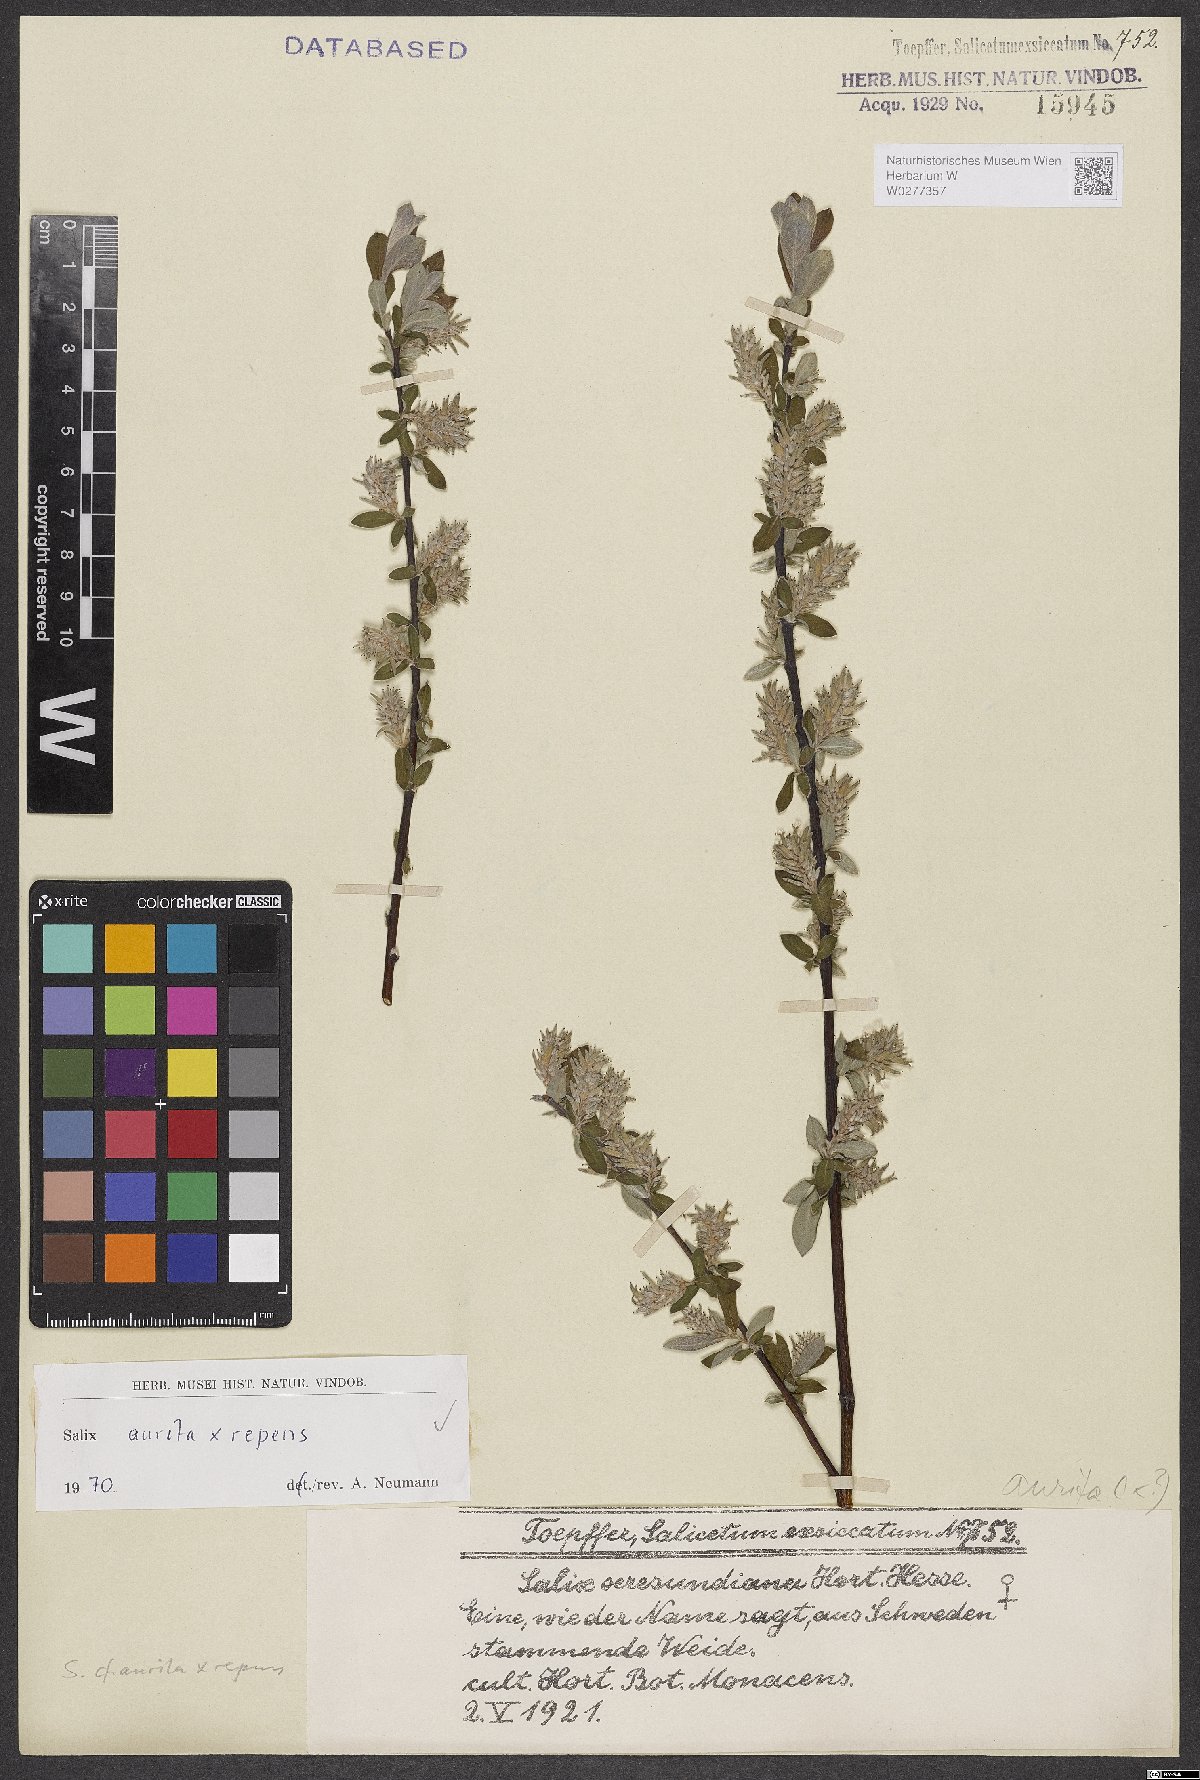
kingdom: Plantae
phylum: Tracheophyta
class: Magnoliopsida
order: Malpighiales
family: Salicaceae
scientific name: Salicaceae
